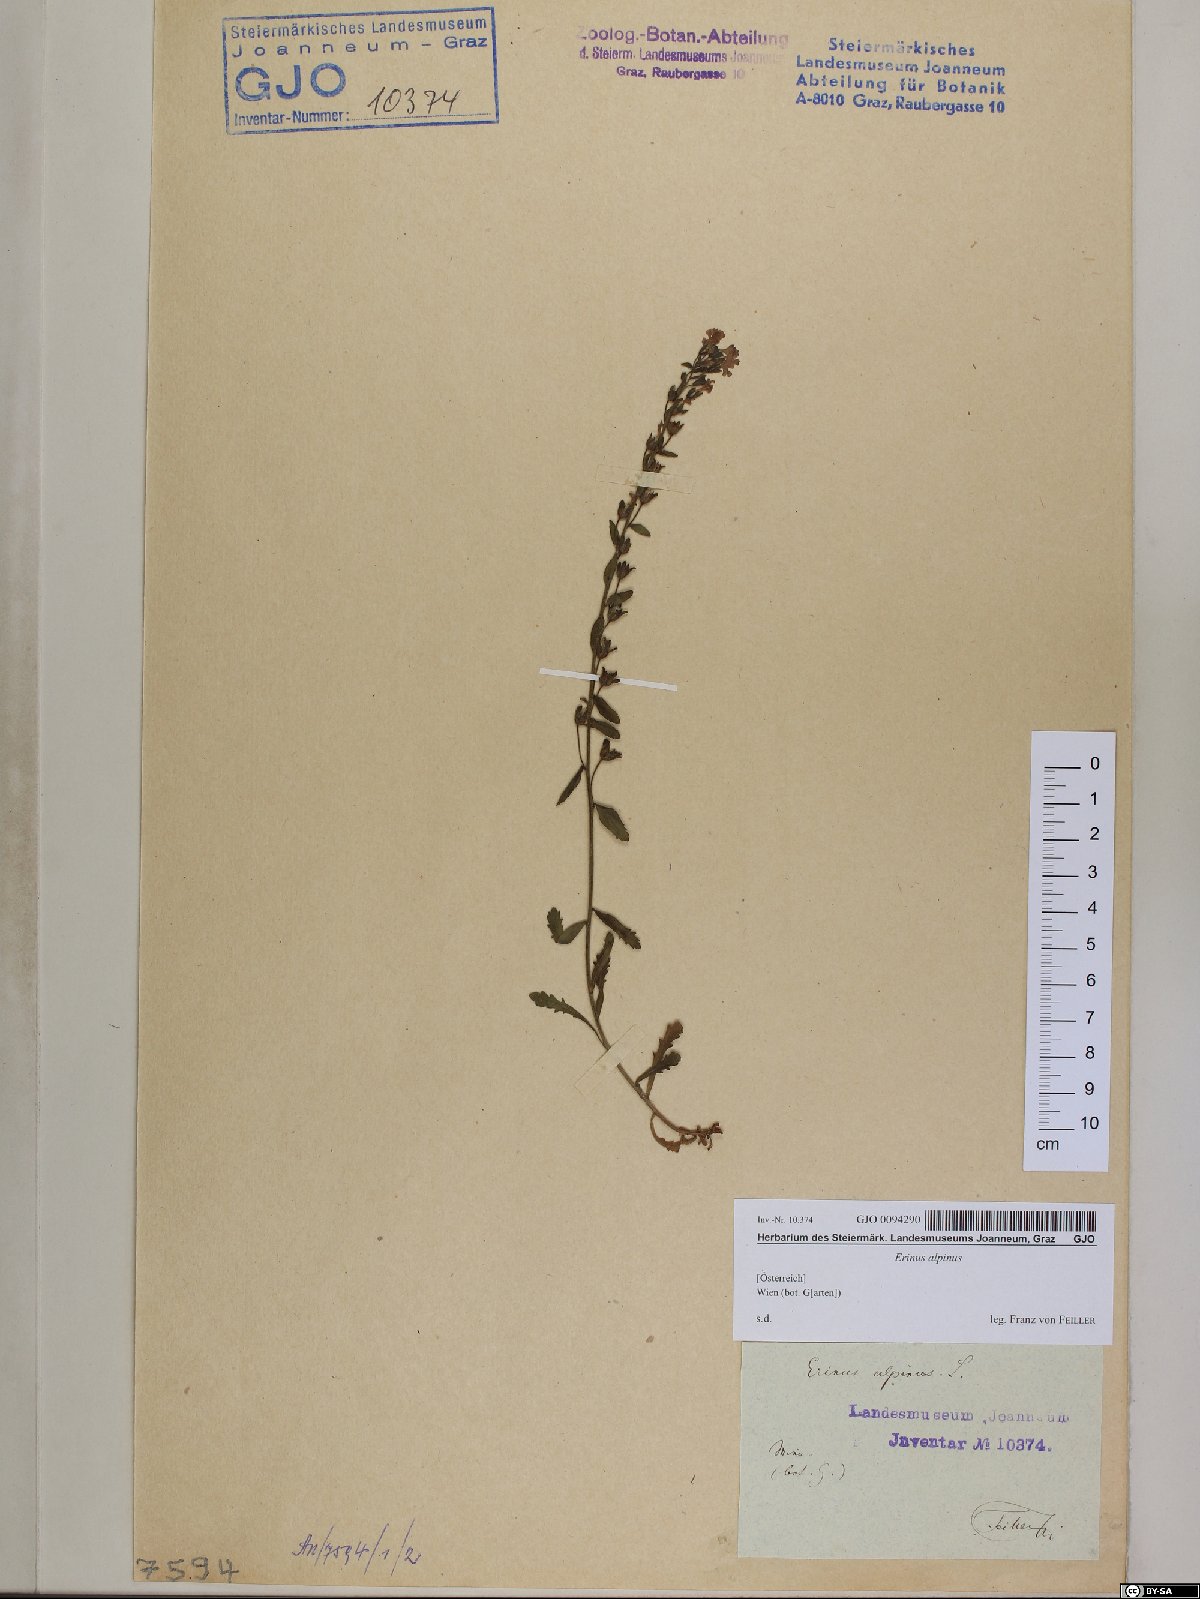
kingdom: Plantae
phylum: Tracheophyta
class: Magnoliopsida
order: Lamiales
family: Plantaginaceae
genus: Erinus
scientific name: Erinus alpinus
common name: Fairy foxglove
